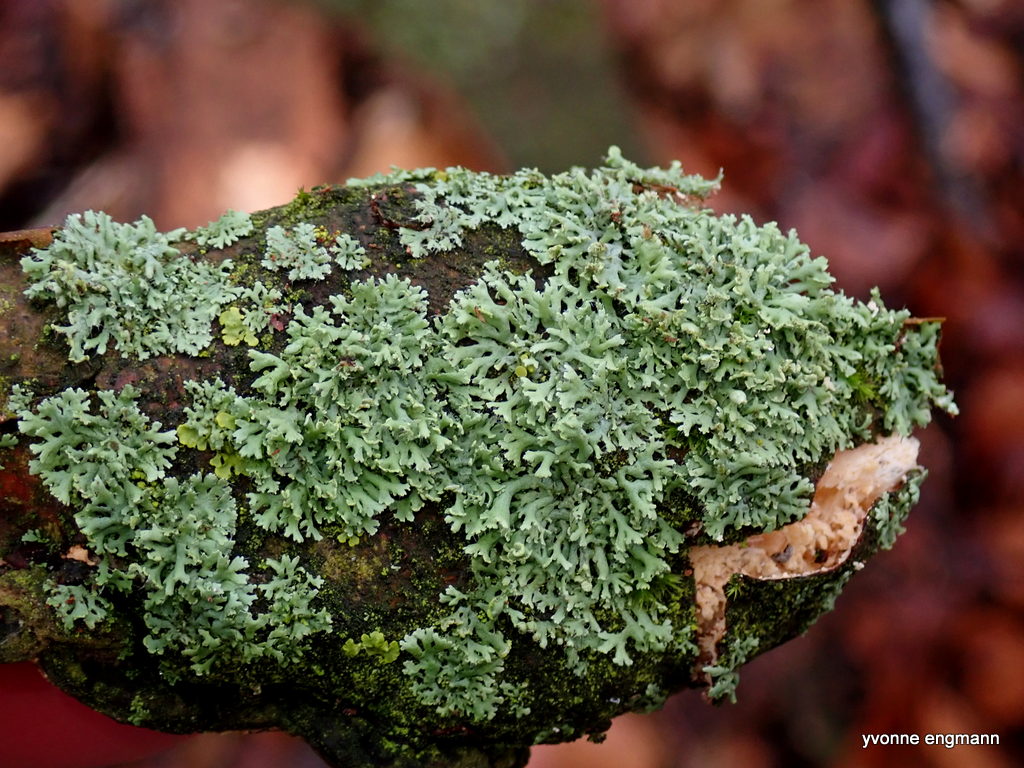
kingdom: Fungi
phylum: Ascomycota
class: Lecanoromycetes
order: Caliciales
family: Physciaceae
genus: Physcia
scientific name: Physcia tenella
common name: spæd rosetlav
